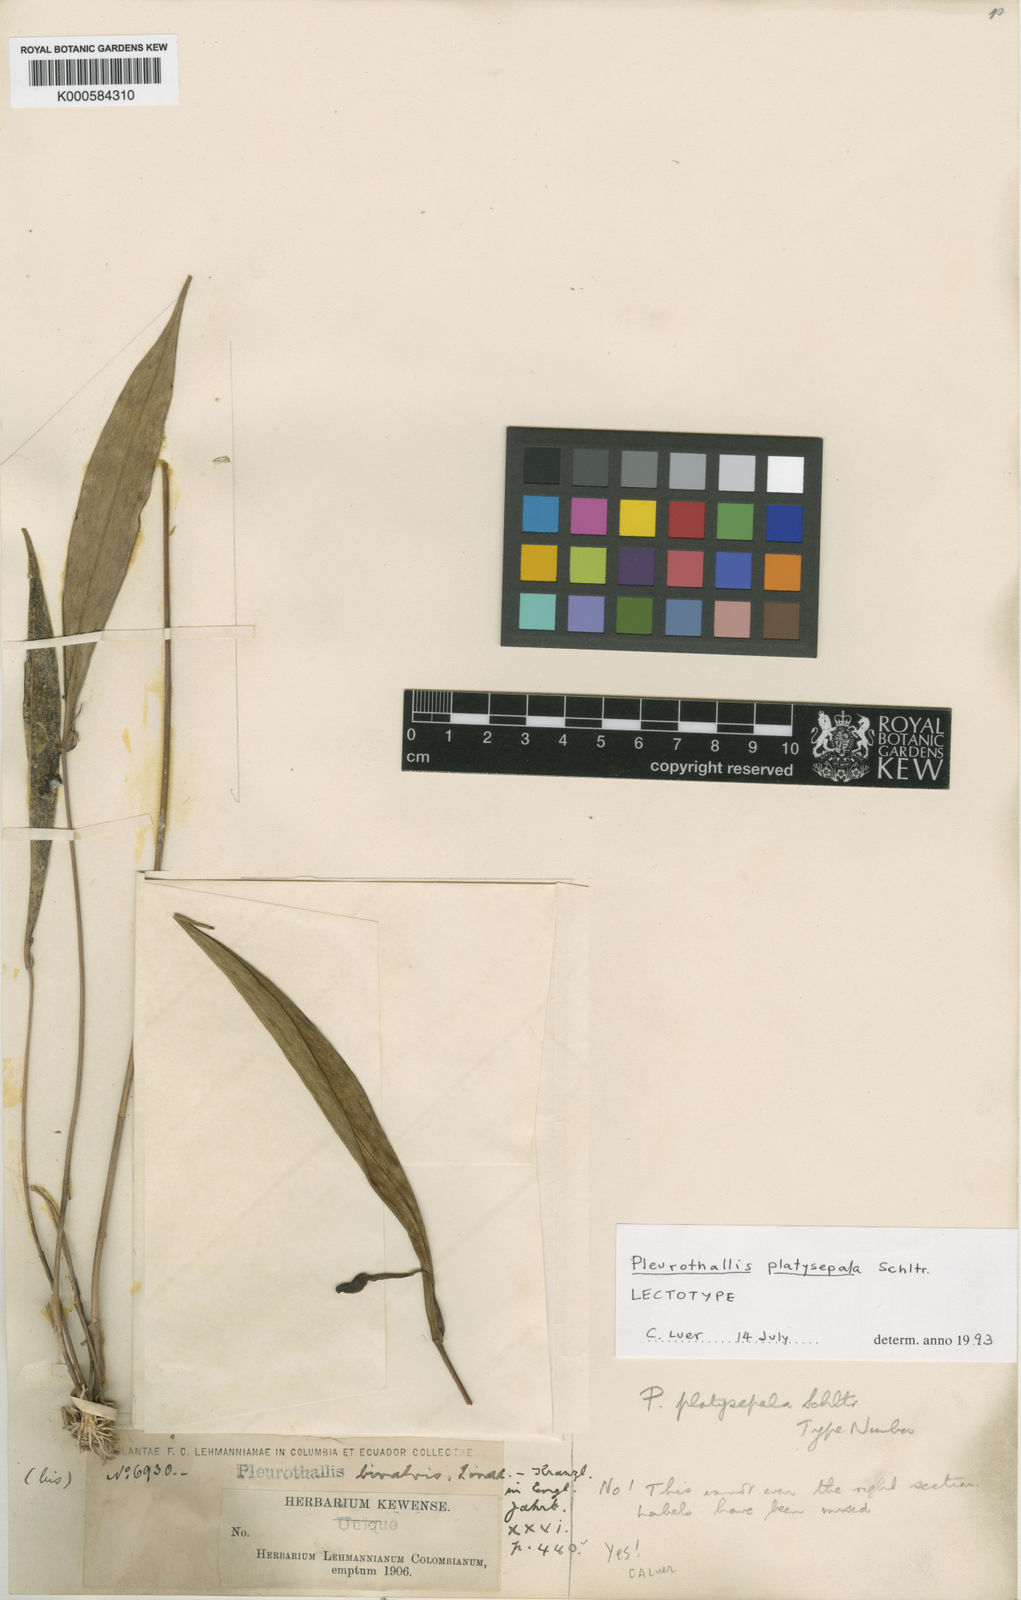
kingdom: Plantae
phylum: Tracheophyta
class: Liliopsida
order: Asparagales
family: Orchidaceae
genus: Pleurothallis
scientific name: Pleurothallis platysepala
